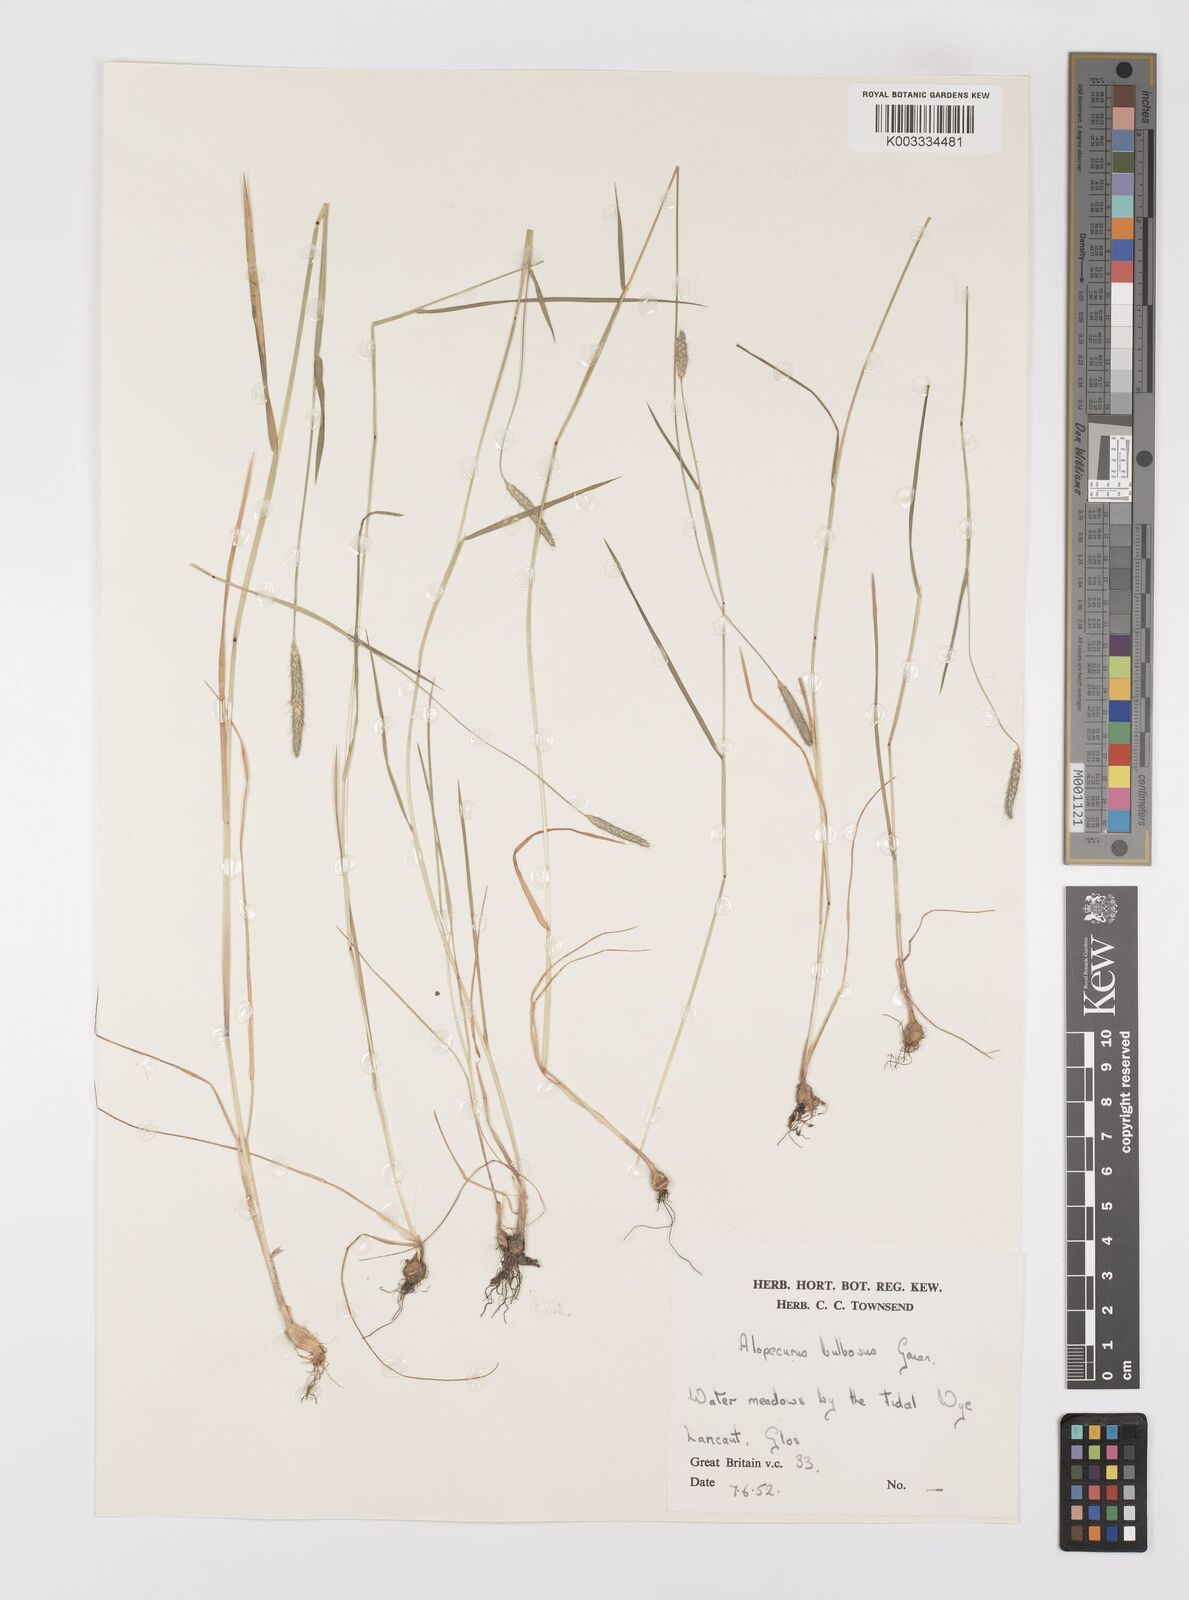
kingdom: Plantae
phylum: Tracheophyta
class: Liliopsida
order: Poales
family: Poaceae
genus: Alopecurus
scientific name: Alopecurus bulbosus
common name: Bulbous foxtail
